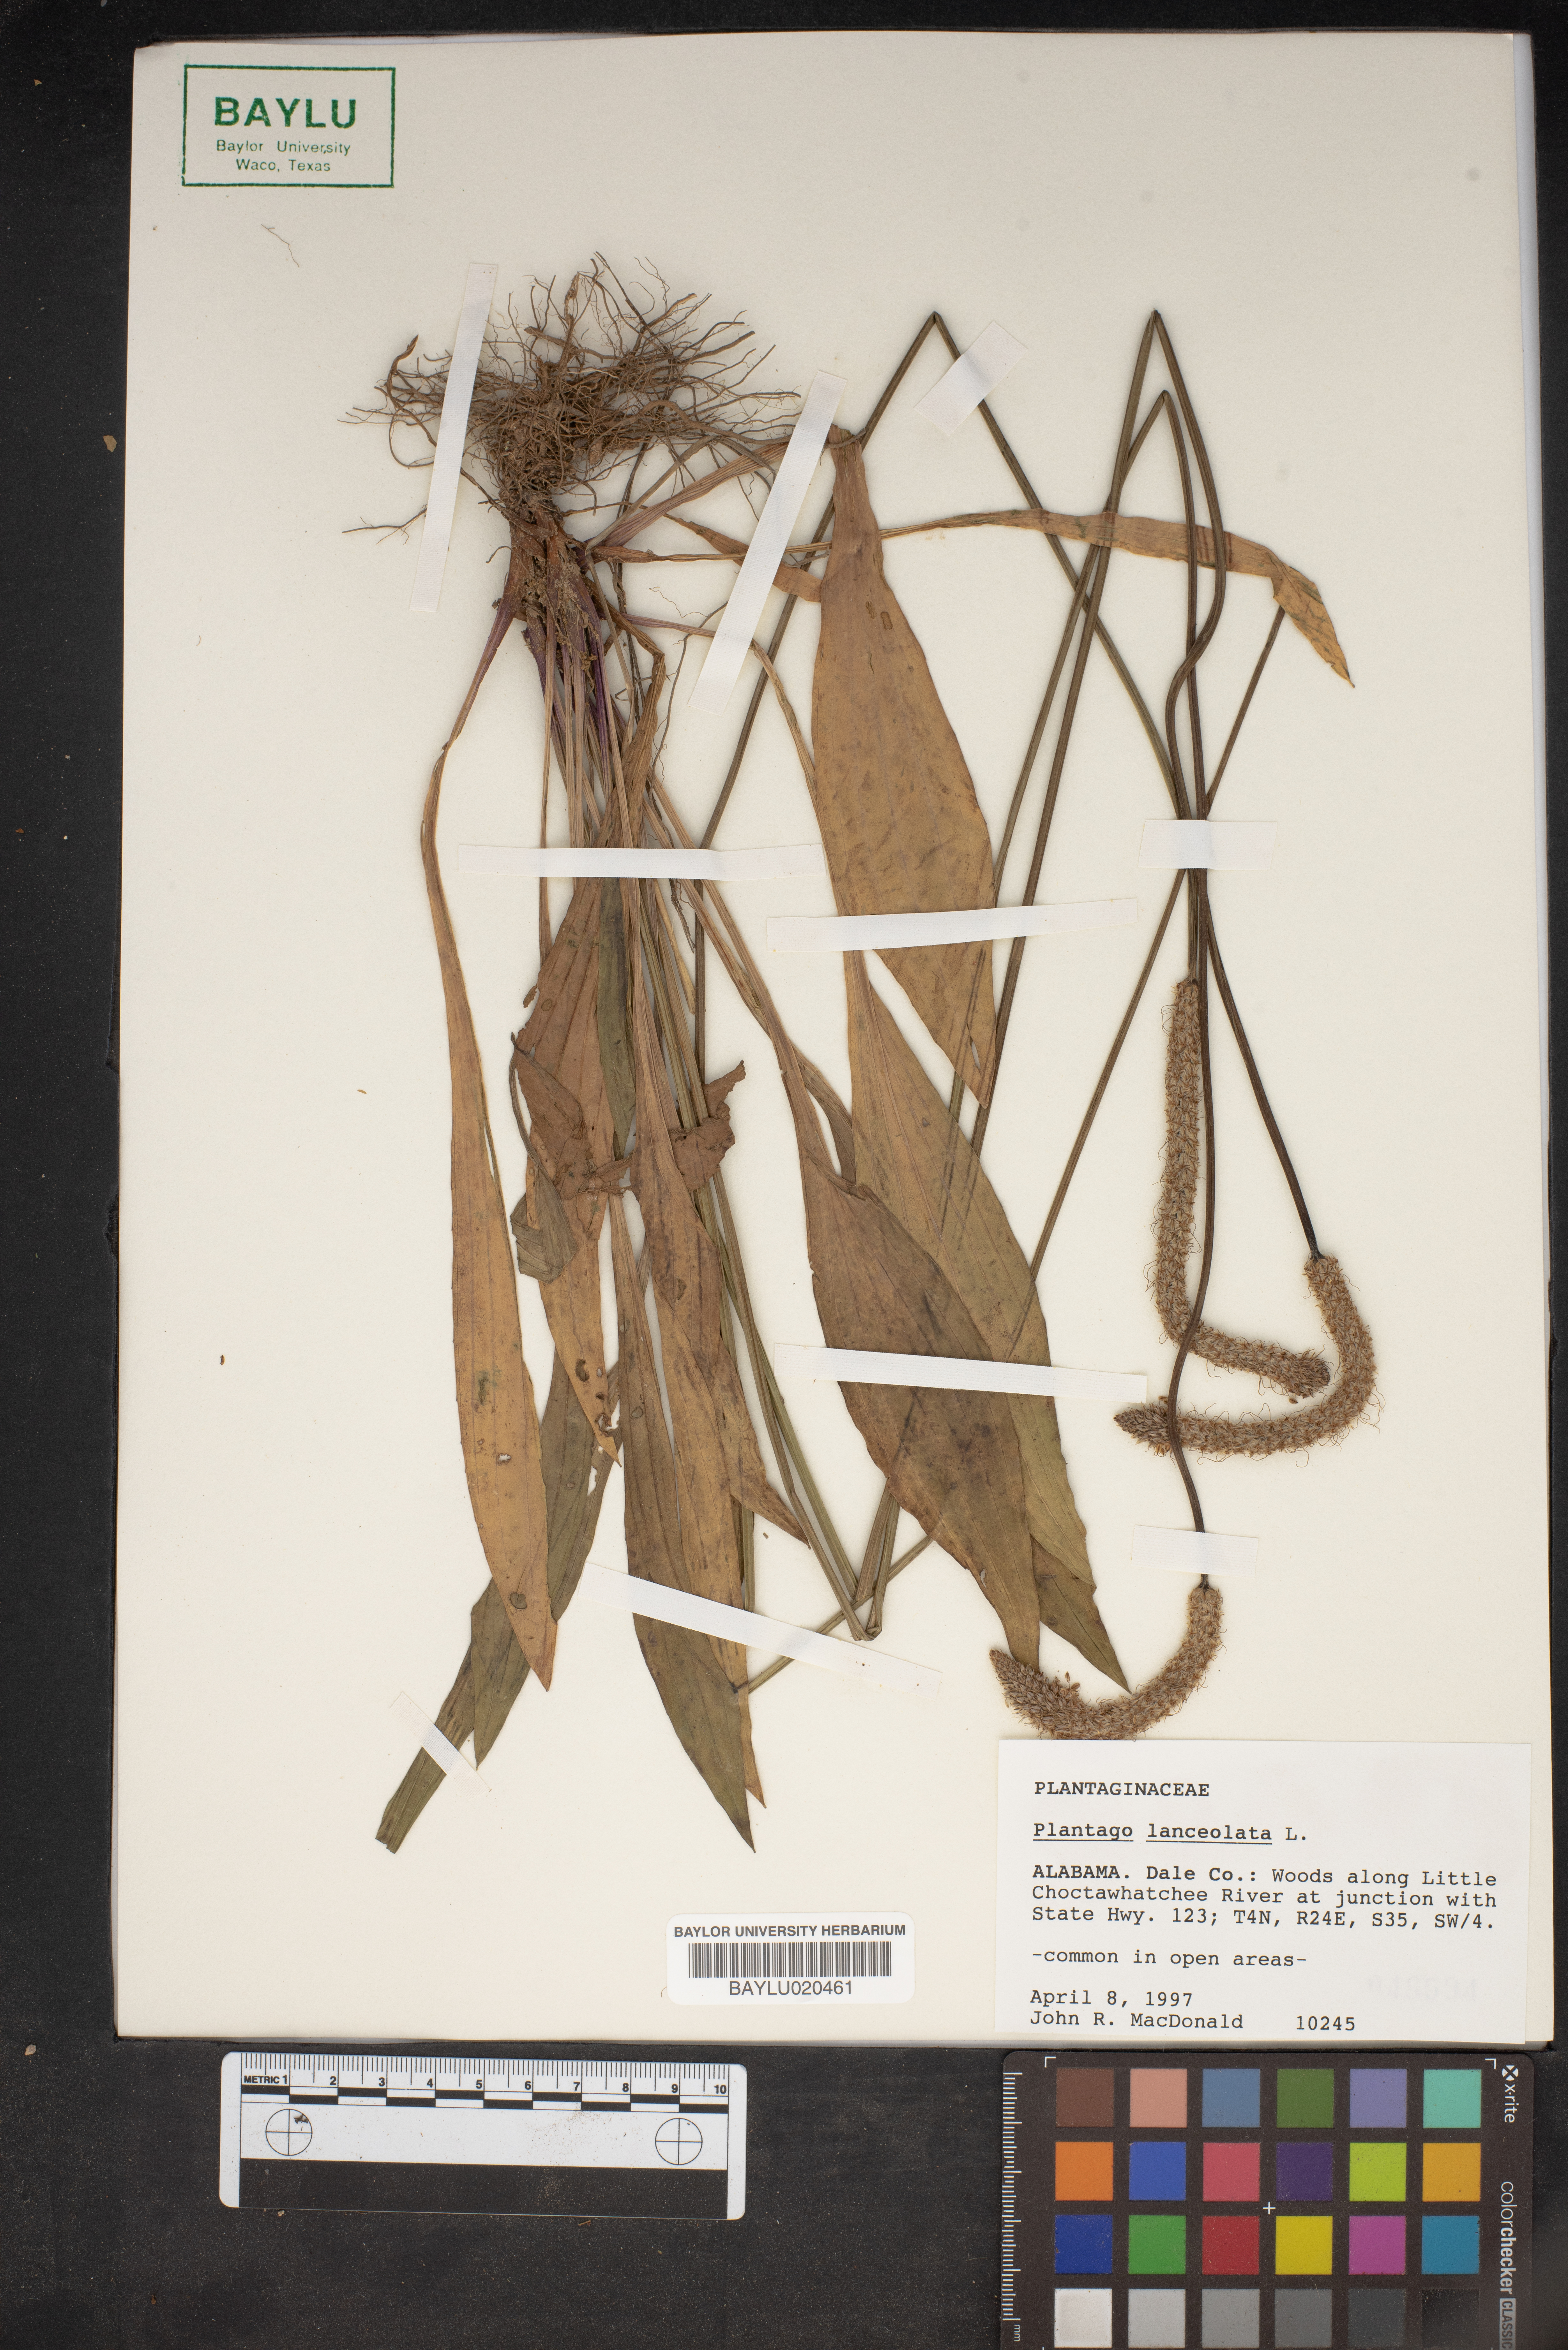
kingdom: Plantae
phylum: Tracheophyta
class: Magnoliopsida
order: Lamiales
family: Plantaginaceae
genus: Plantago
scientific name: Plantago lanceolata
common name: Ribwort plantain
